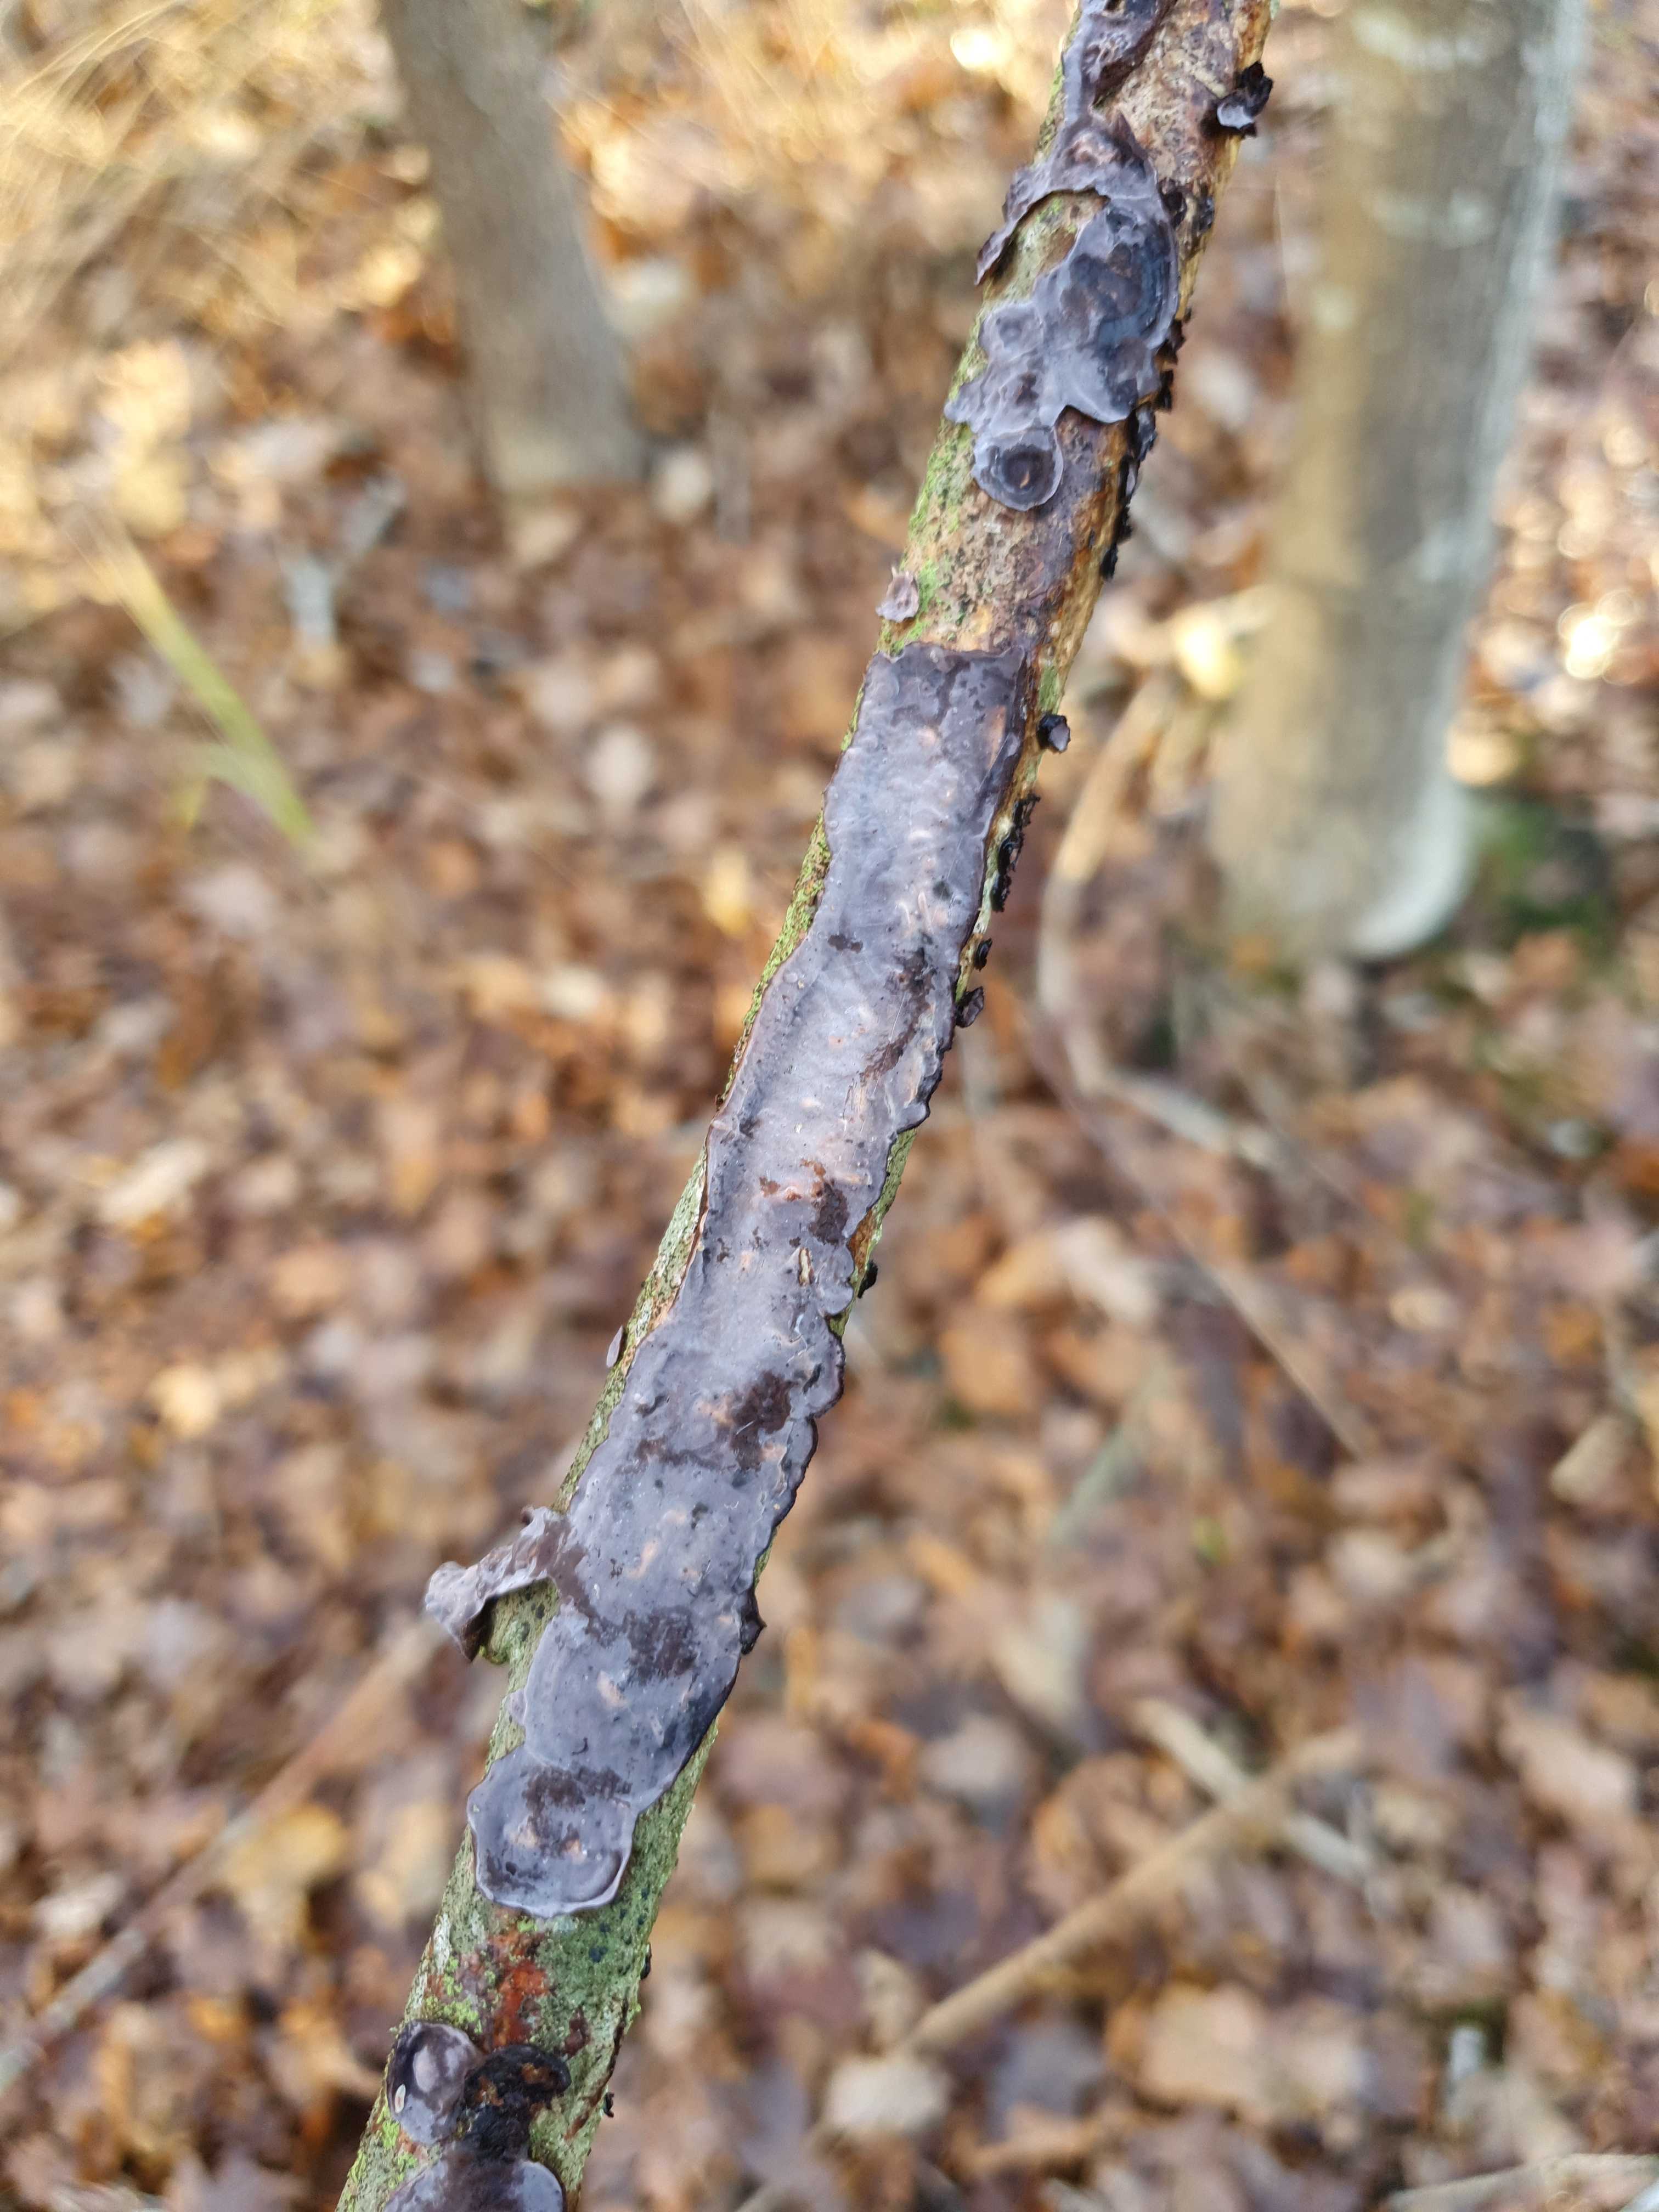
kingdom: Fungi
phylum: Basidiomycota
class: Agaricomycetes
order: Russulales
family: Peniophoraceae
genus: Peniophora
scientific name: Peniophora quercina
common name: ege-voksskind
